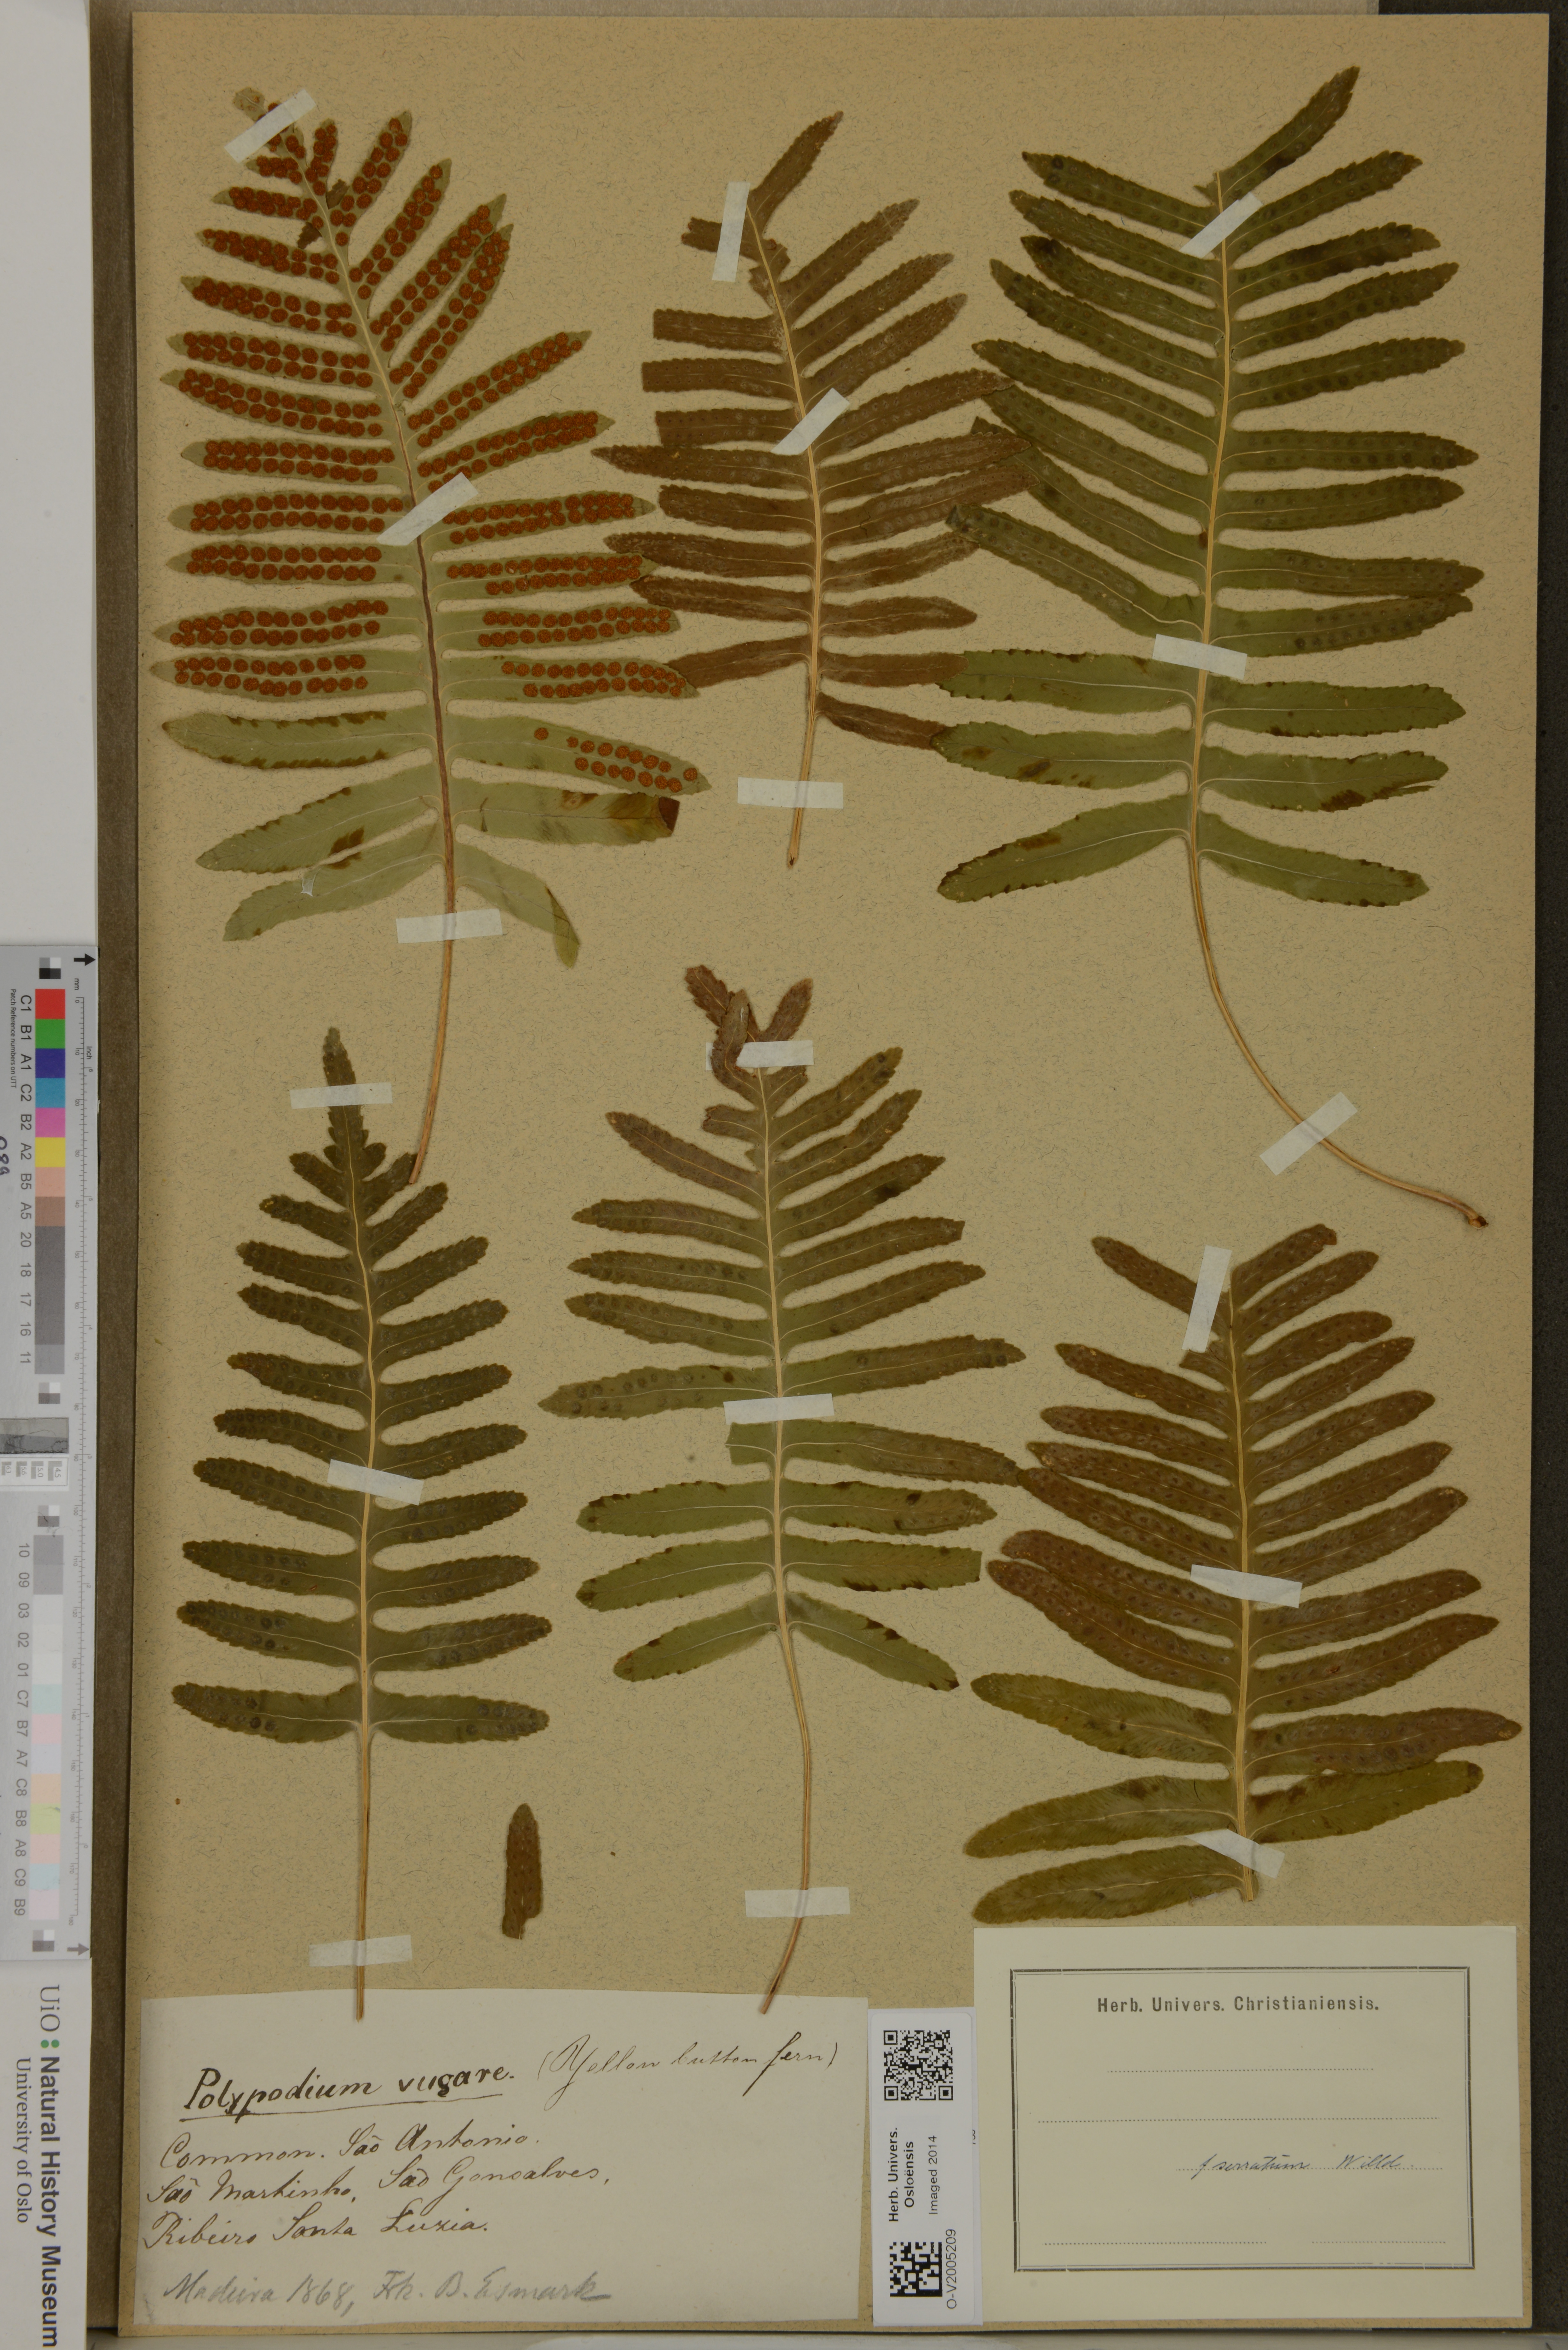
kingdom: Plantae
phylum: Tracheophyta
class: Polypodiopsida
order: Polypodiales
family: Polypodiaceae
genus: Polypodium
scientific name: Polypodium
